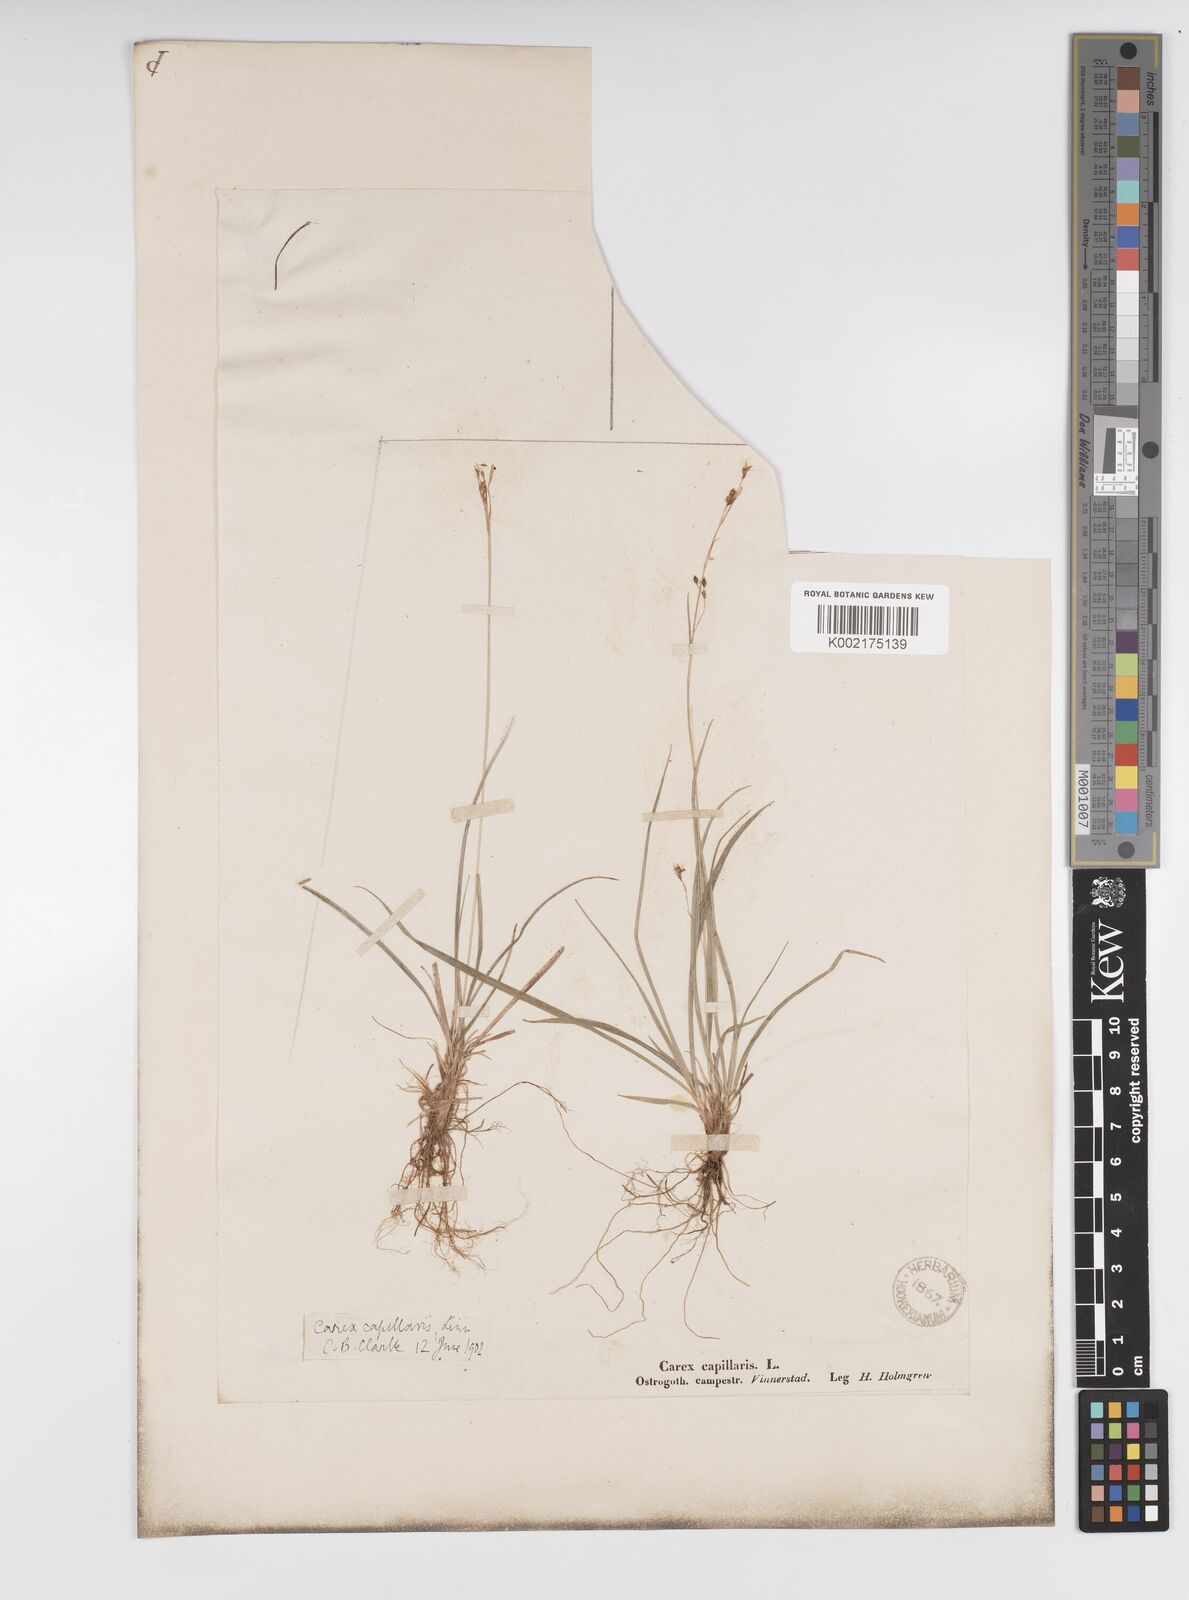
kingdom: Plantae
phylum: Tracheophyta
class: Liliopsida
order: Poales
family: Cyperaceae
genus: Carex
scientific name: Carex capillaris
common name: Hair sedge
